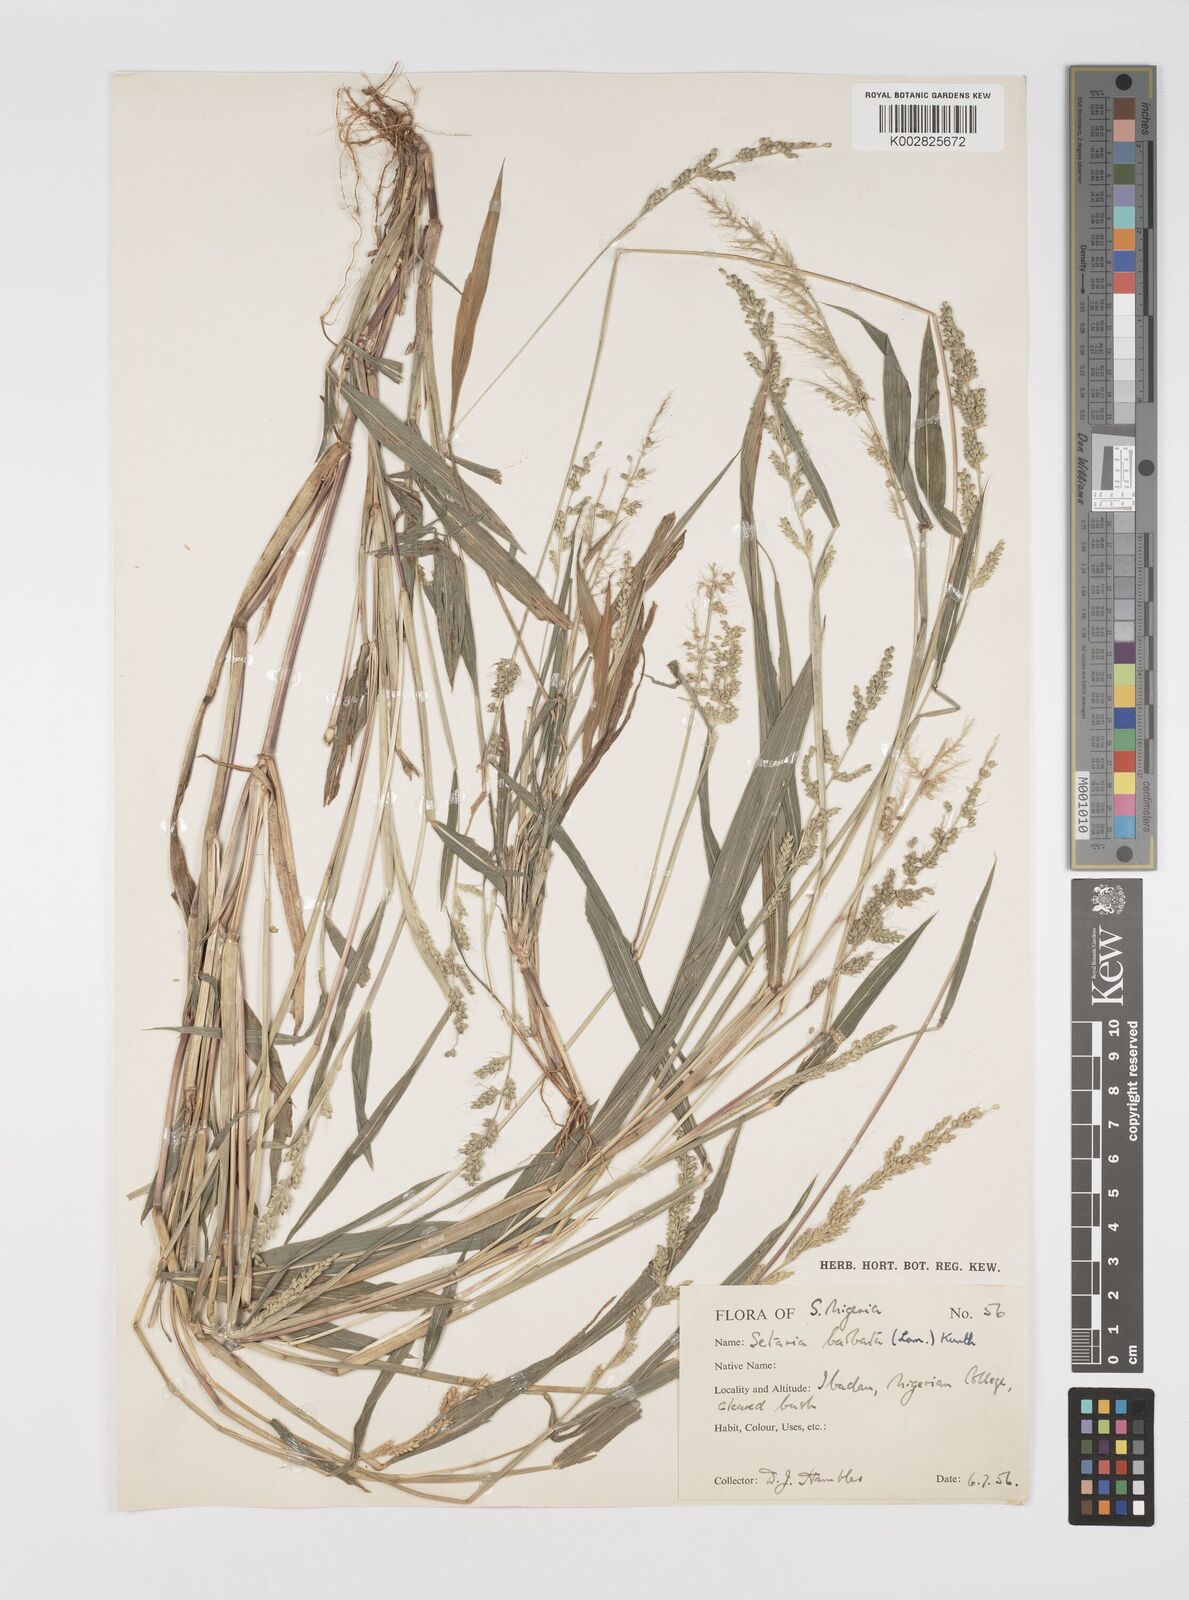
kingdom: Plantae
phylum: Tracheophyta
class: Liliopsida
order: Poales
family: Poaceae
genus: Setaria
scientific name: Setaria barbata
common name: East indian bristlegrass
